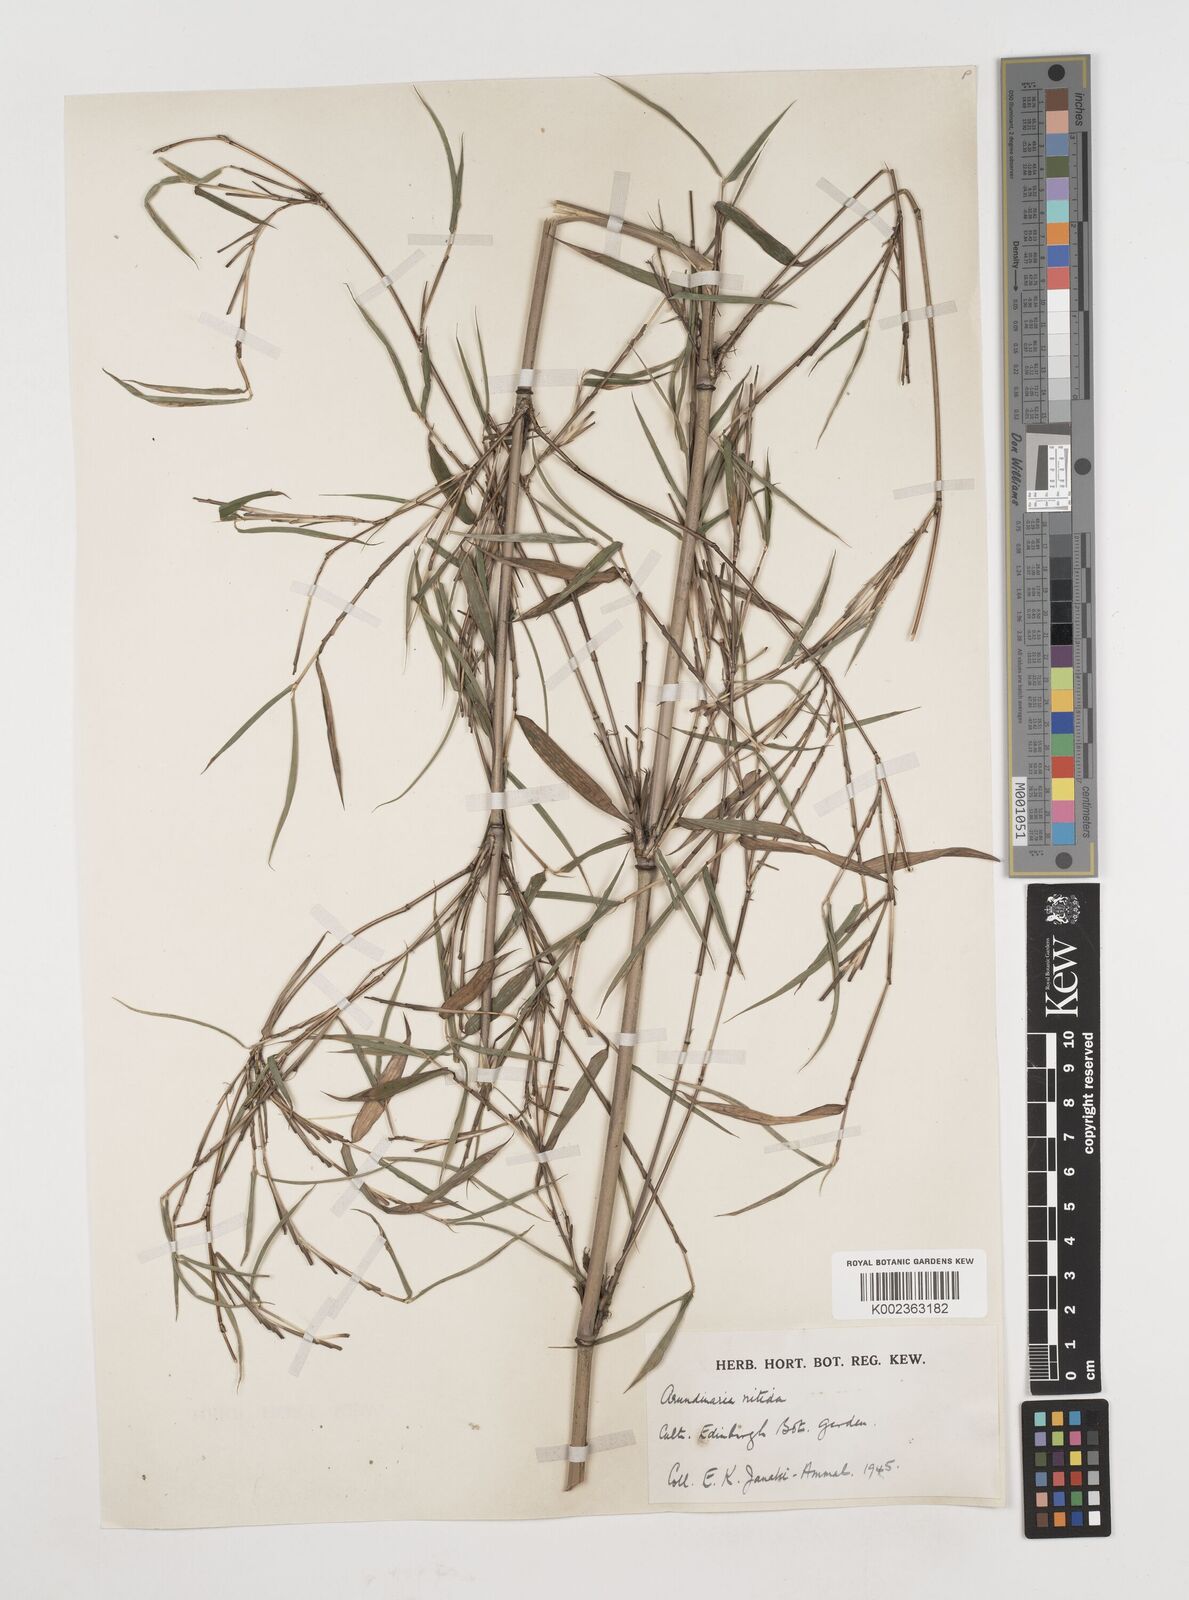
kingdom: Plantae
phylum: Tracheophyta
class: Liliopsida
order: Poales
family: Poaceae
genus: Fargesia
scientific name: Fargesia nitida ex
